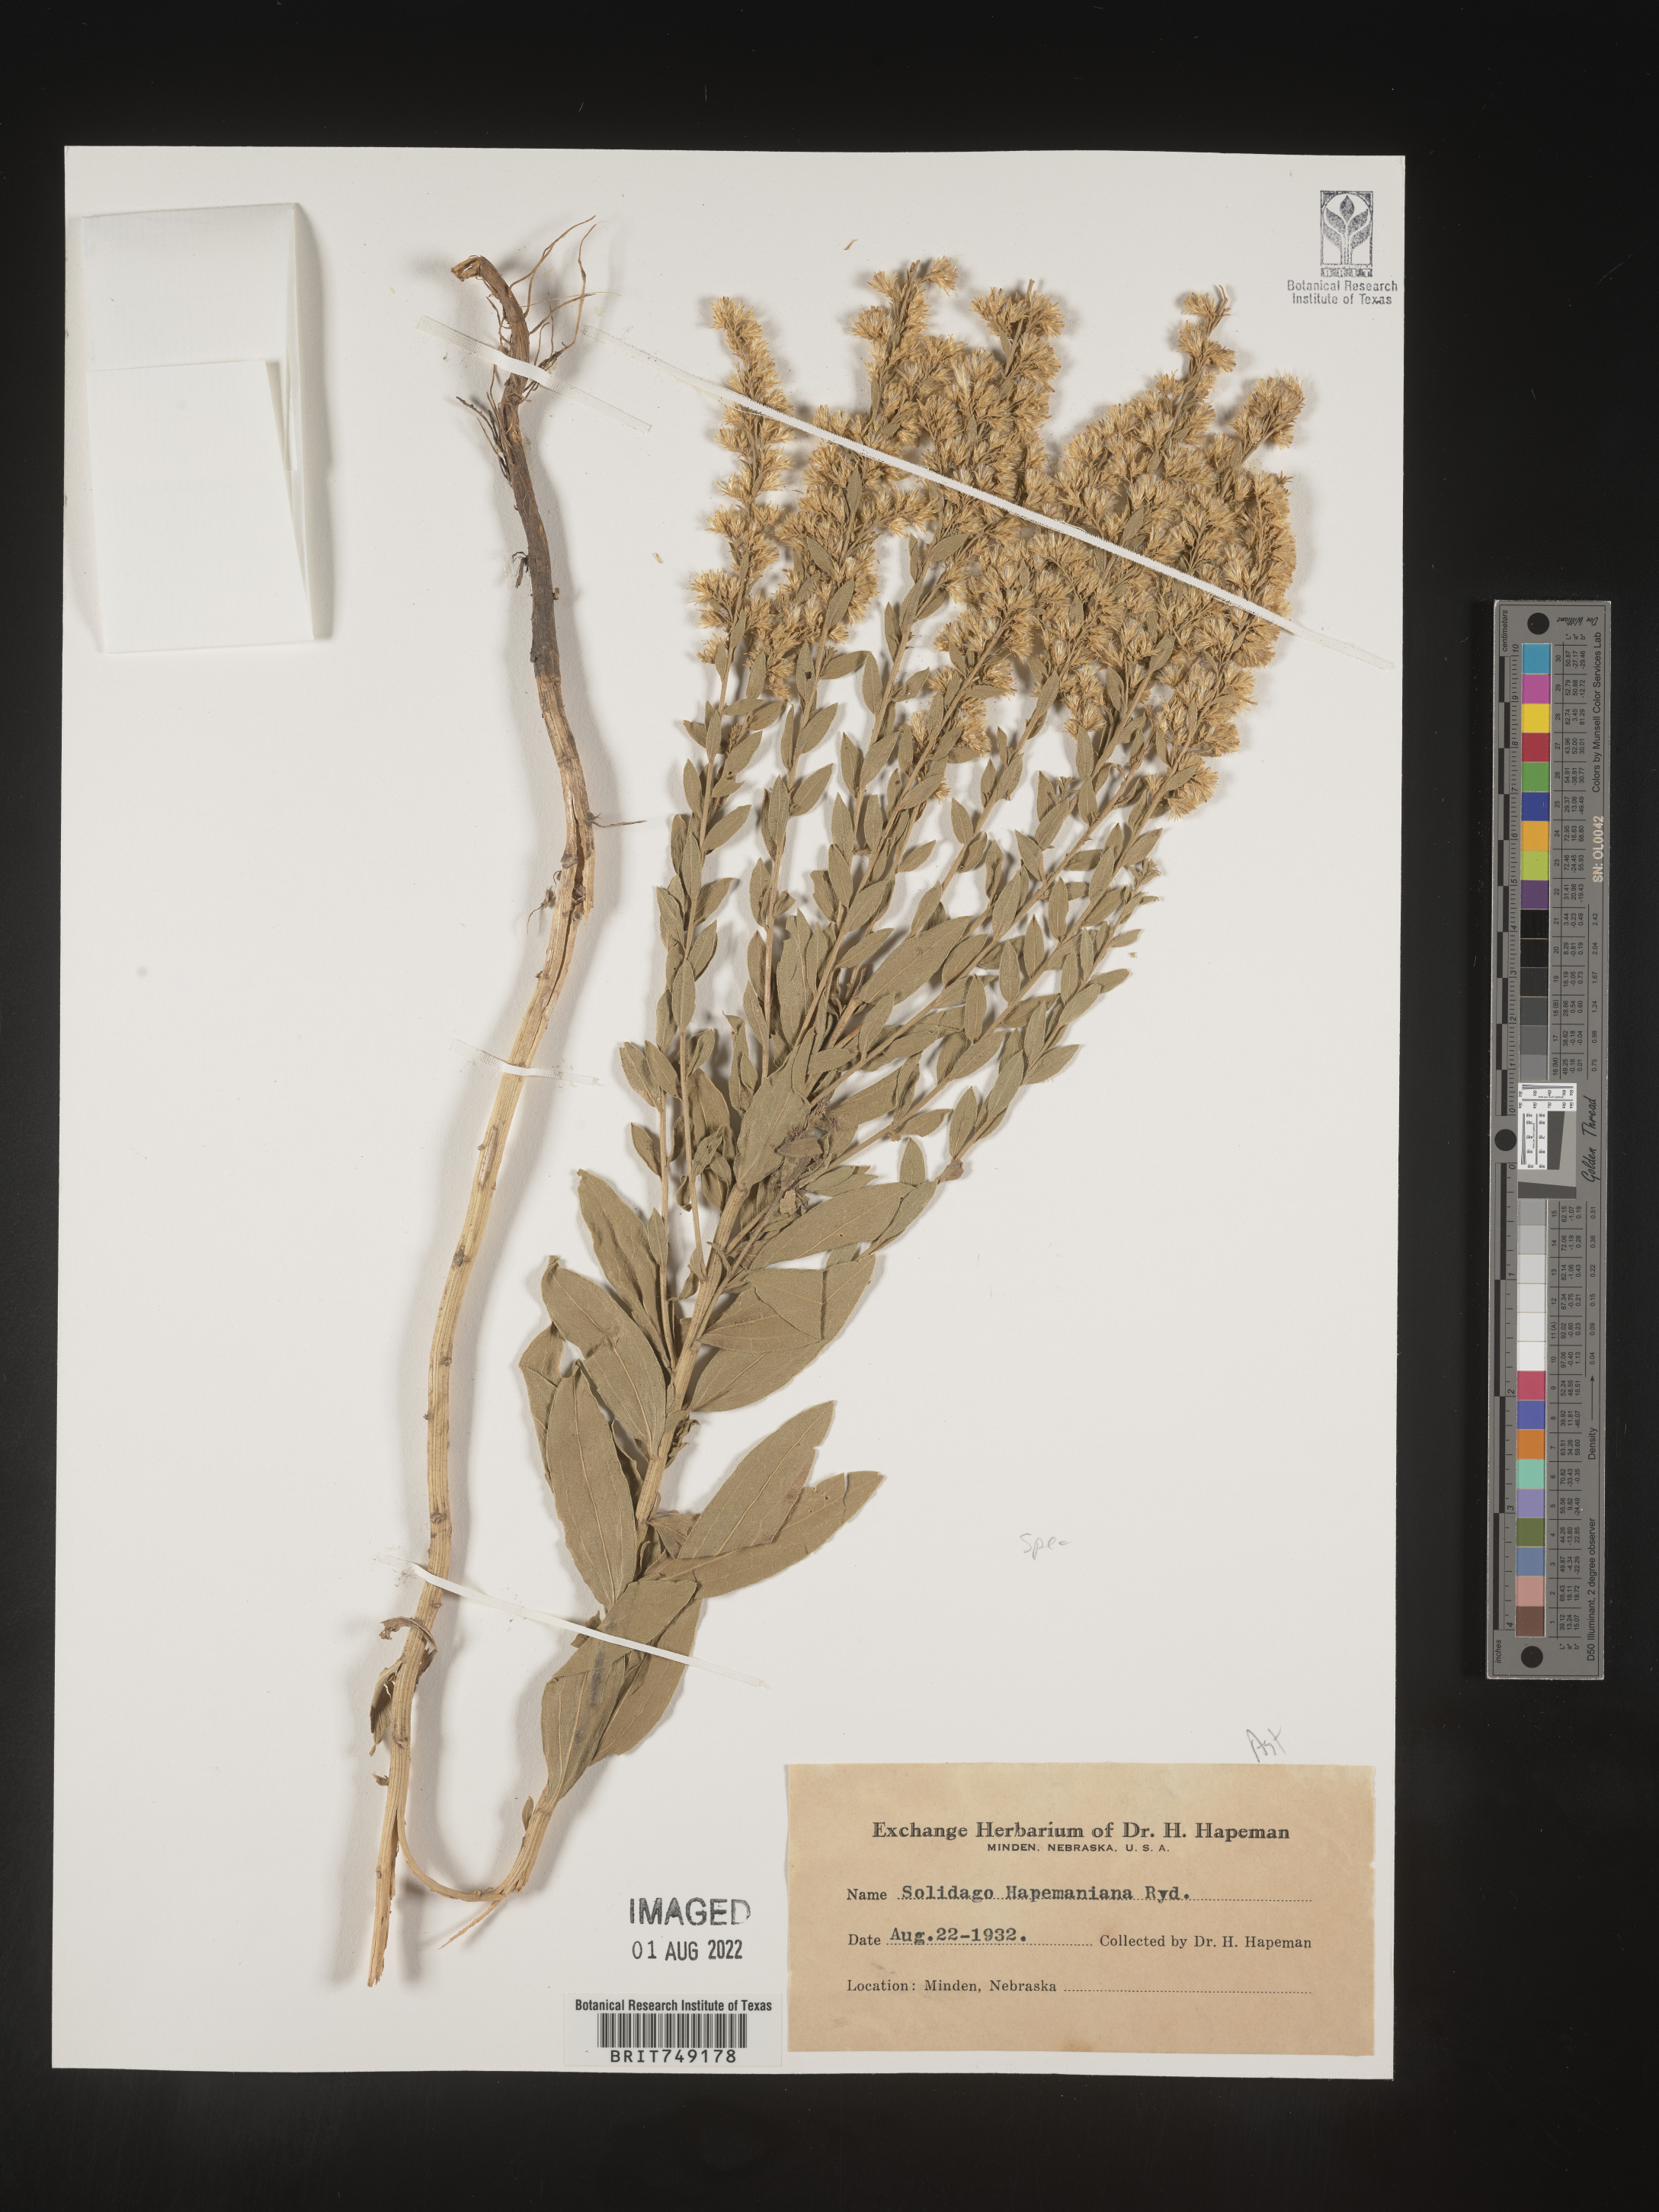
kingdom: Plantae
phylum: Tracheophyta
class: Magnoliopsida
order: Asterales
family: Asteraceae
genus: Solidago
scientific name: Solidago speciosa
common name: Showy goldenrod
